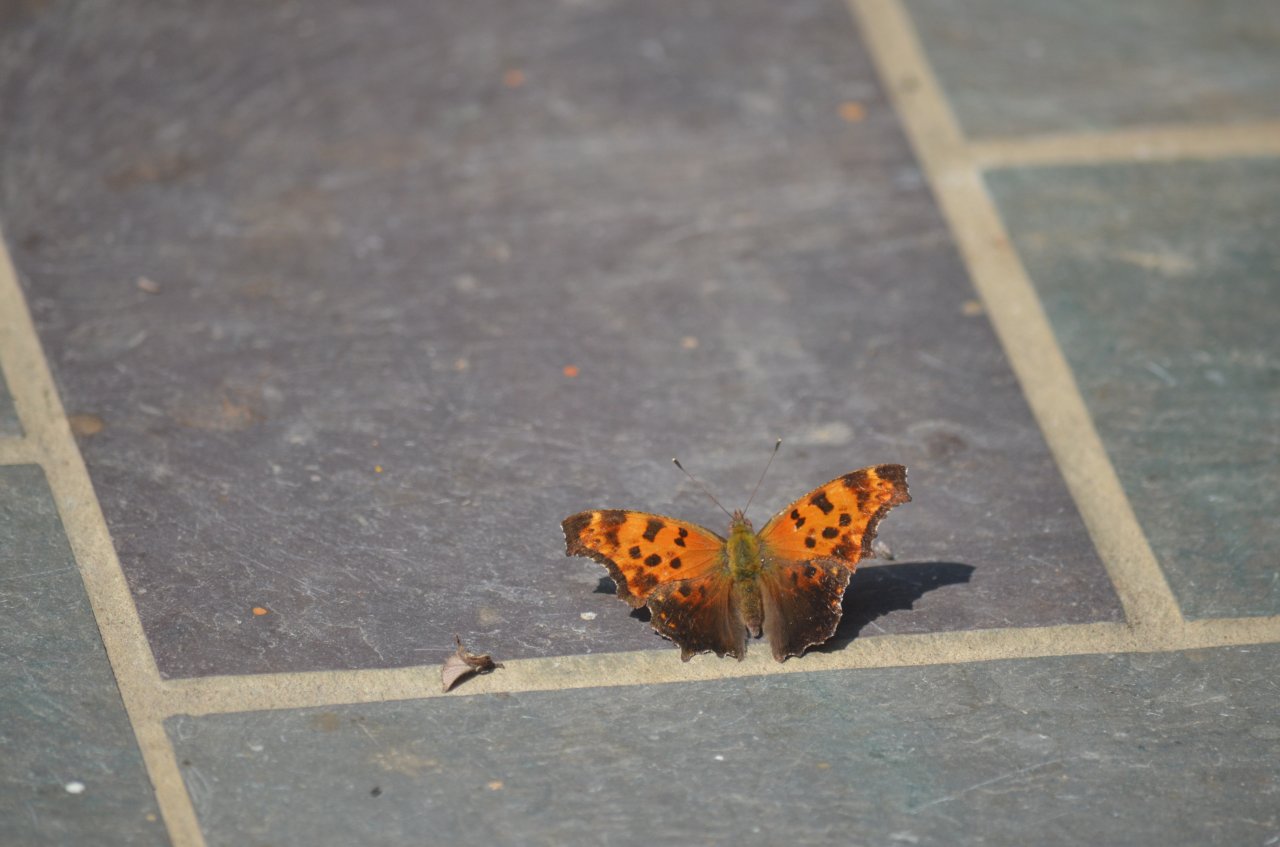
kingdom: Animalia
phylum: Arthropoda
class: Insecta
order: Lepidoptera
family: Nymphalidae
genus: Polygonia
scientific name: Polygonia comma
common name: Eastern Comma
